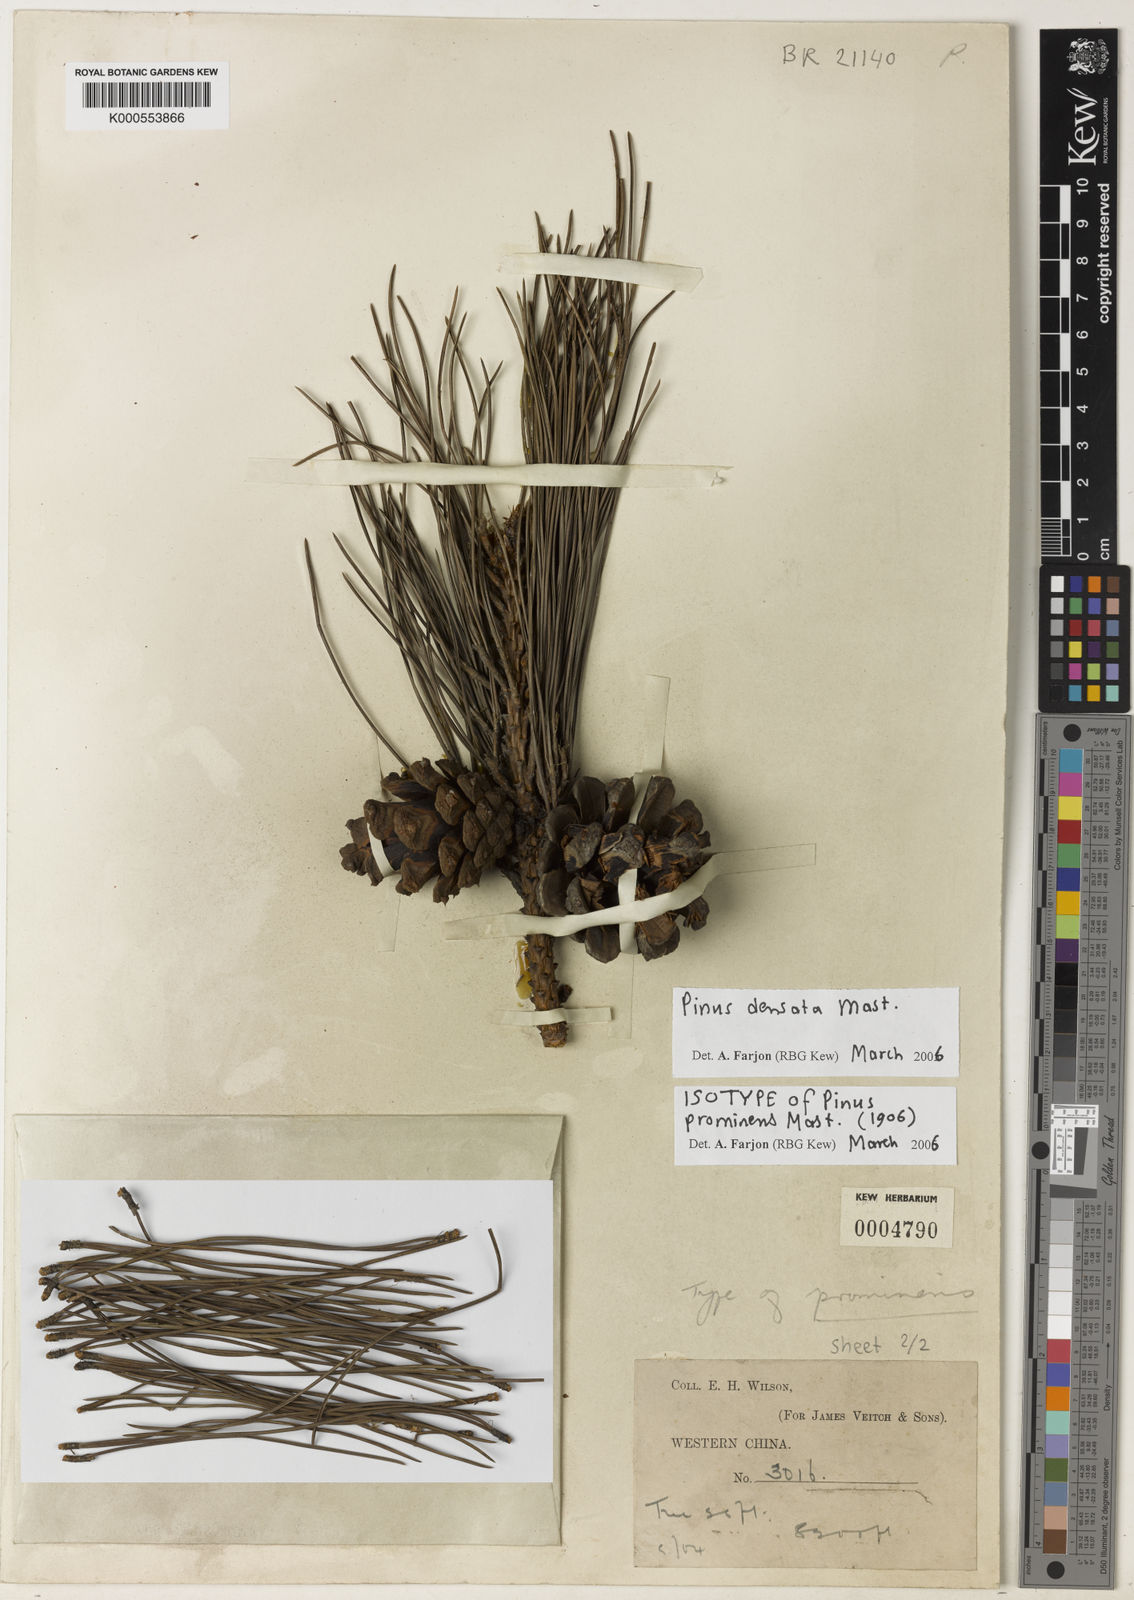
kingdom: Plantae
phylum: Tracheophyta
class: Pinopsida
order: Pinales
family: Pinaceae
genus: Pinus
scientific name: Pinus densata
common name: Gaoshan pine
